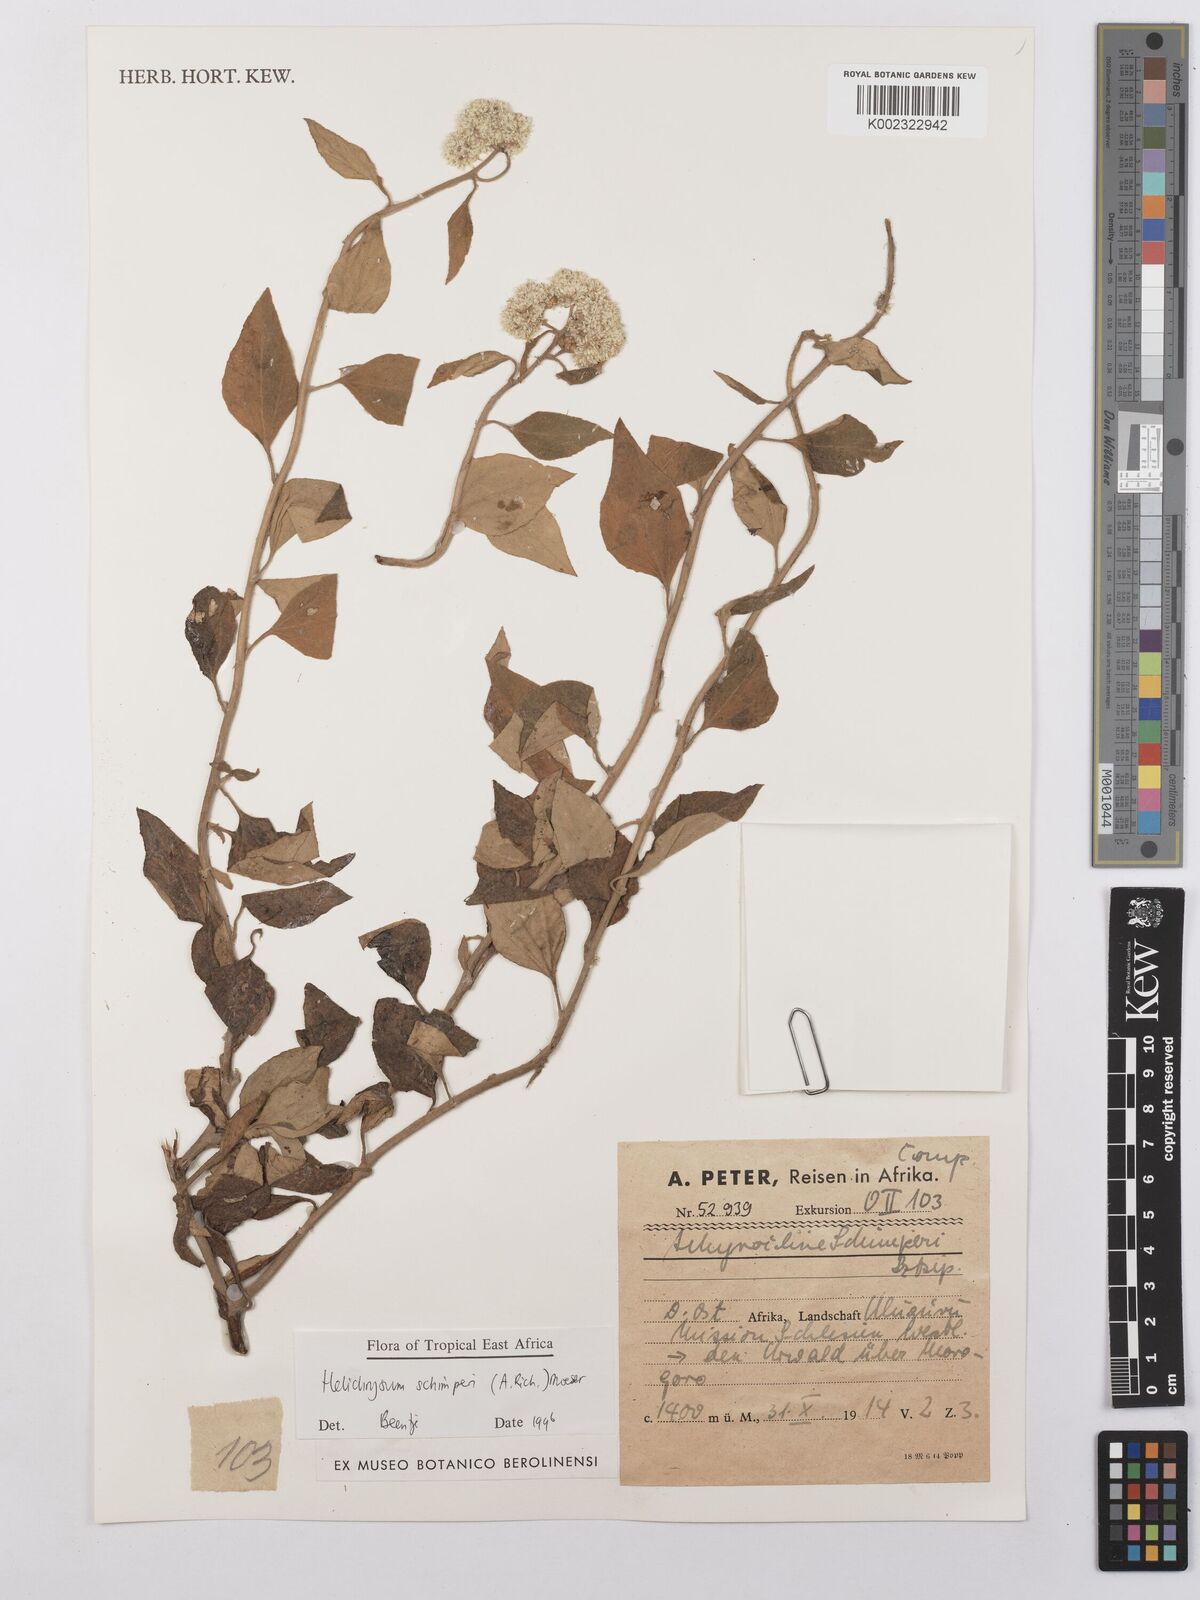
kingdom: Plantae
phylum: Tracheophyta
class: Magnoliopsida
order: Asterales
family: Asteraceae
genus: Helichrysum
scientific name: Helichrysum schimperi
